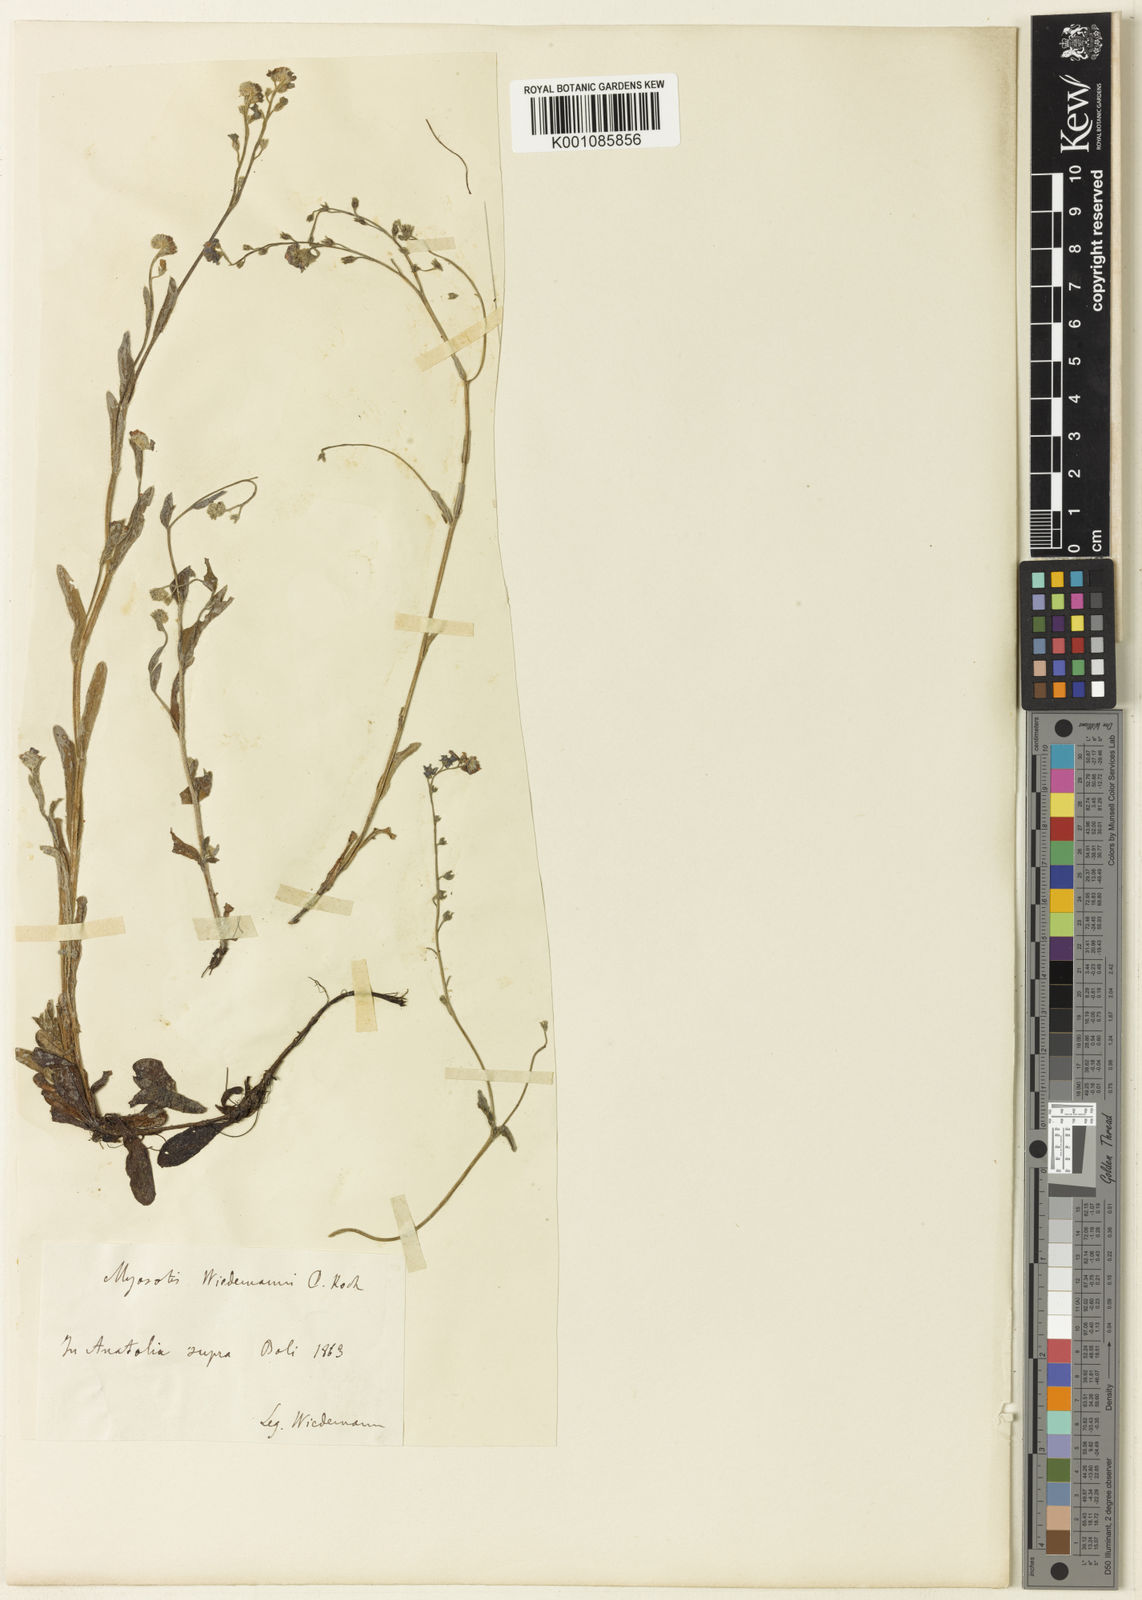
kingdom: Plantae
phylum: Tracheophyta
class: Magnoliopsida
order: Boraginales
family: Boraginaceae
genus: Myosotis
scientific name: Myosotis arvensis
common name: Field forget-me-not
